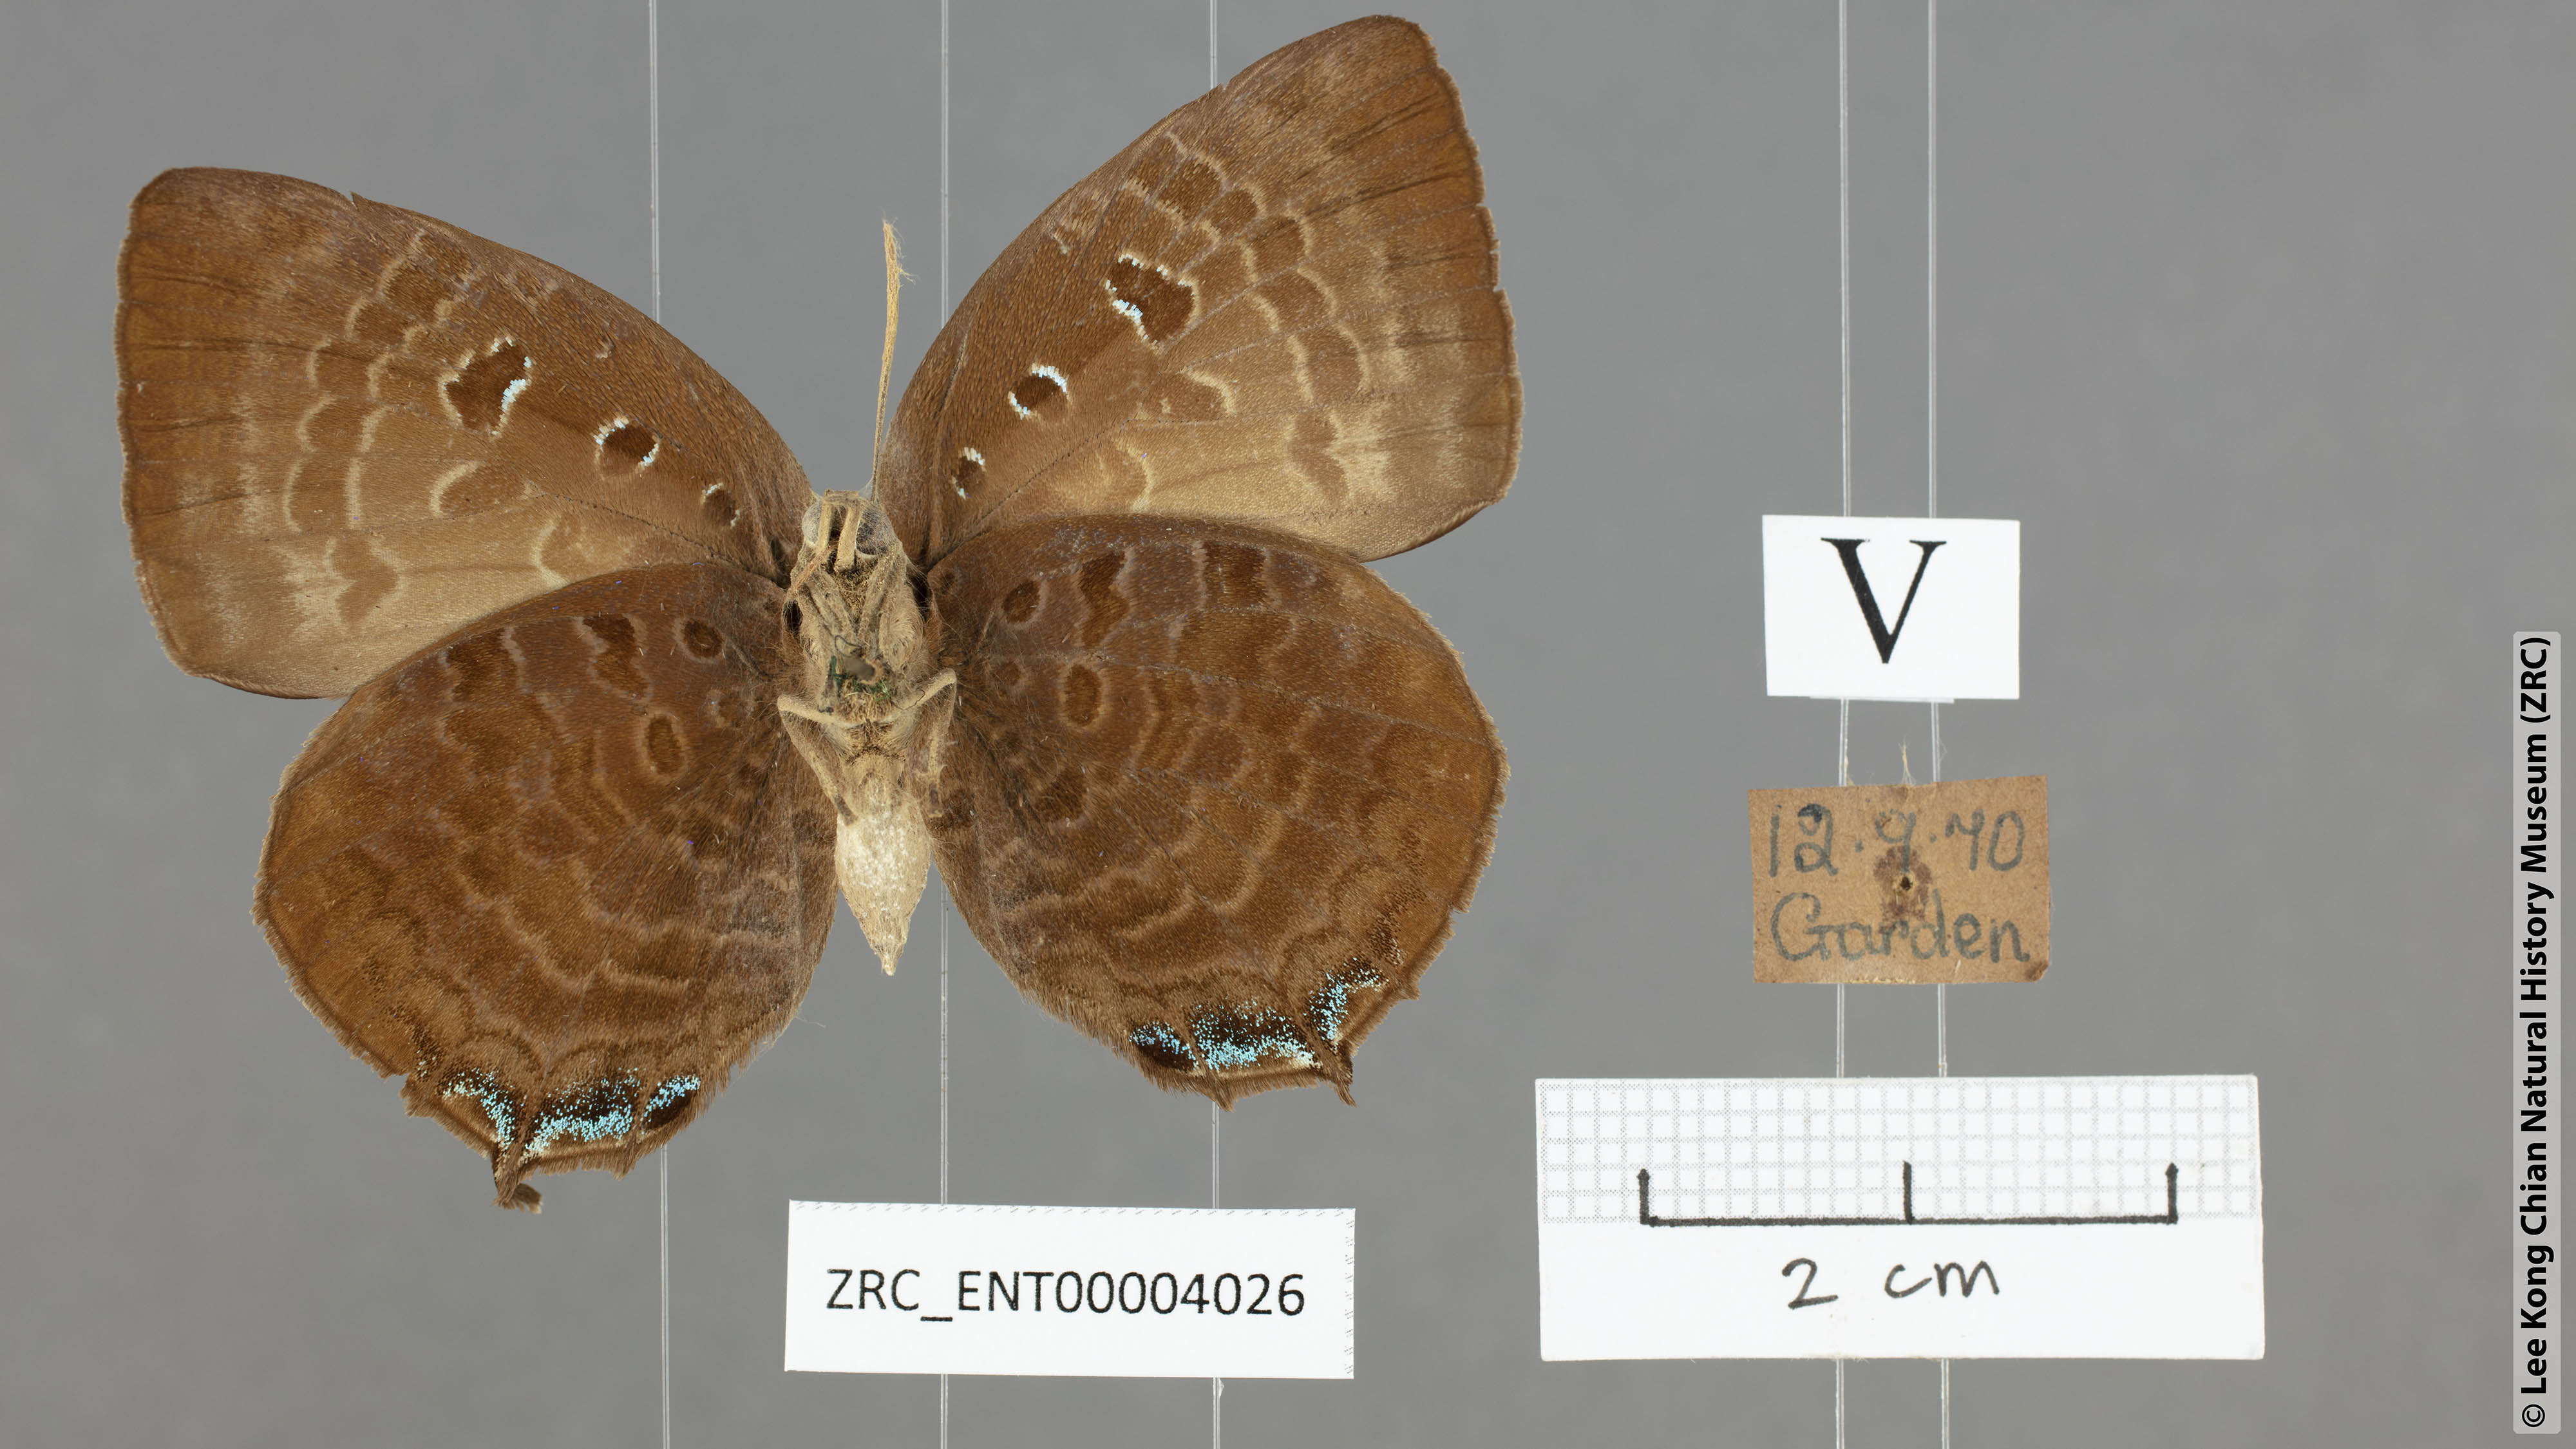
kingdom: Animalia
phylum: Arthropoda
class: Insecta
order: Lepidoptera
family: Lycaenidae
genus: Arhopala
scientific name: Arhopala centaurus
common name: Dull oak-blue
